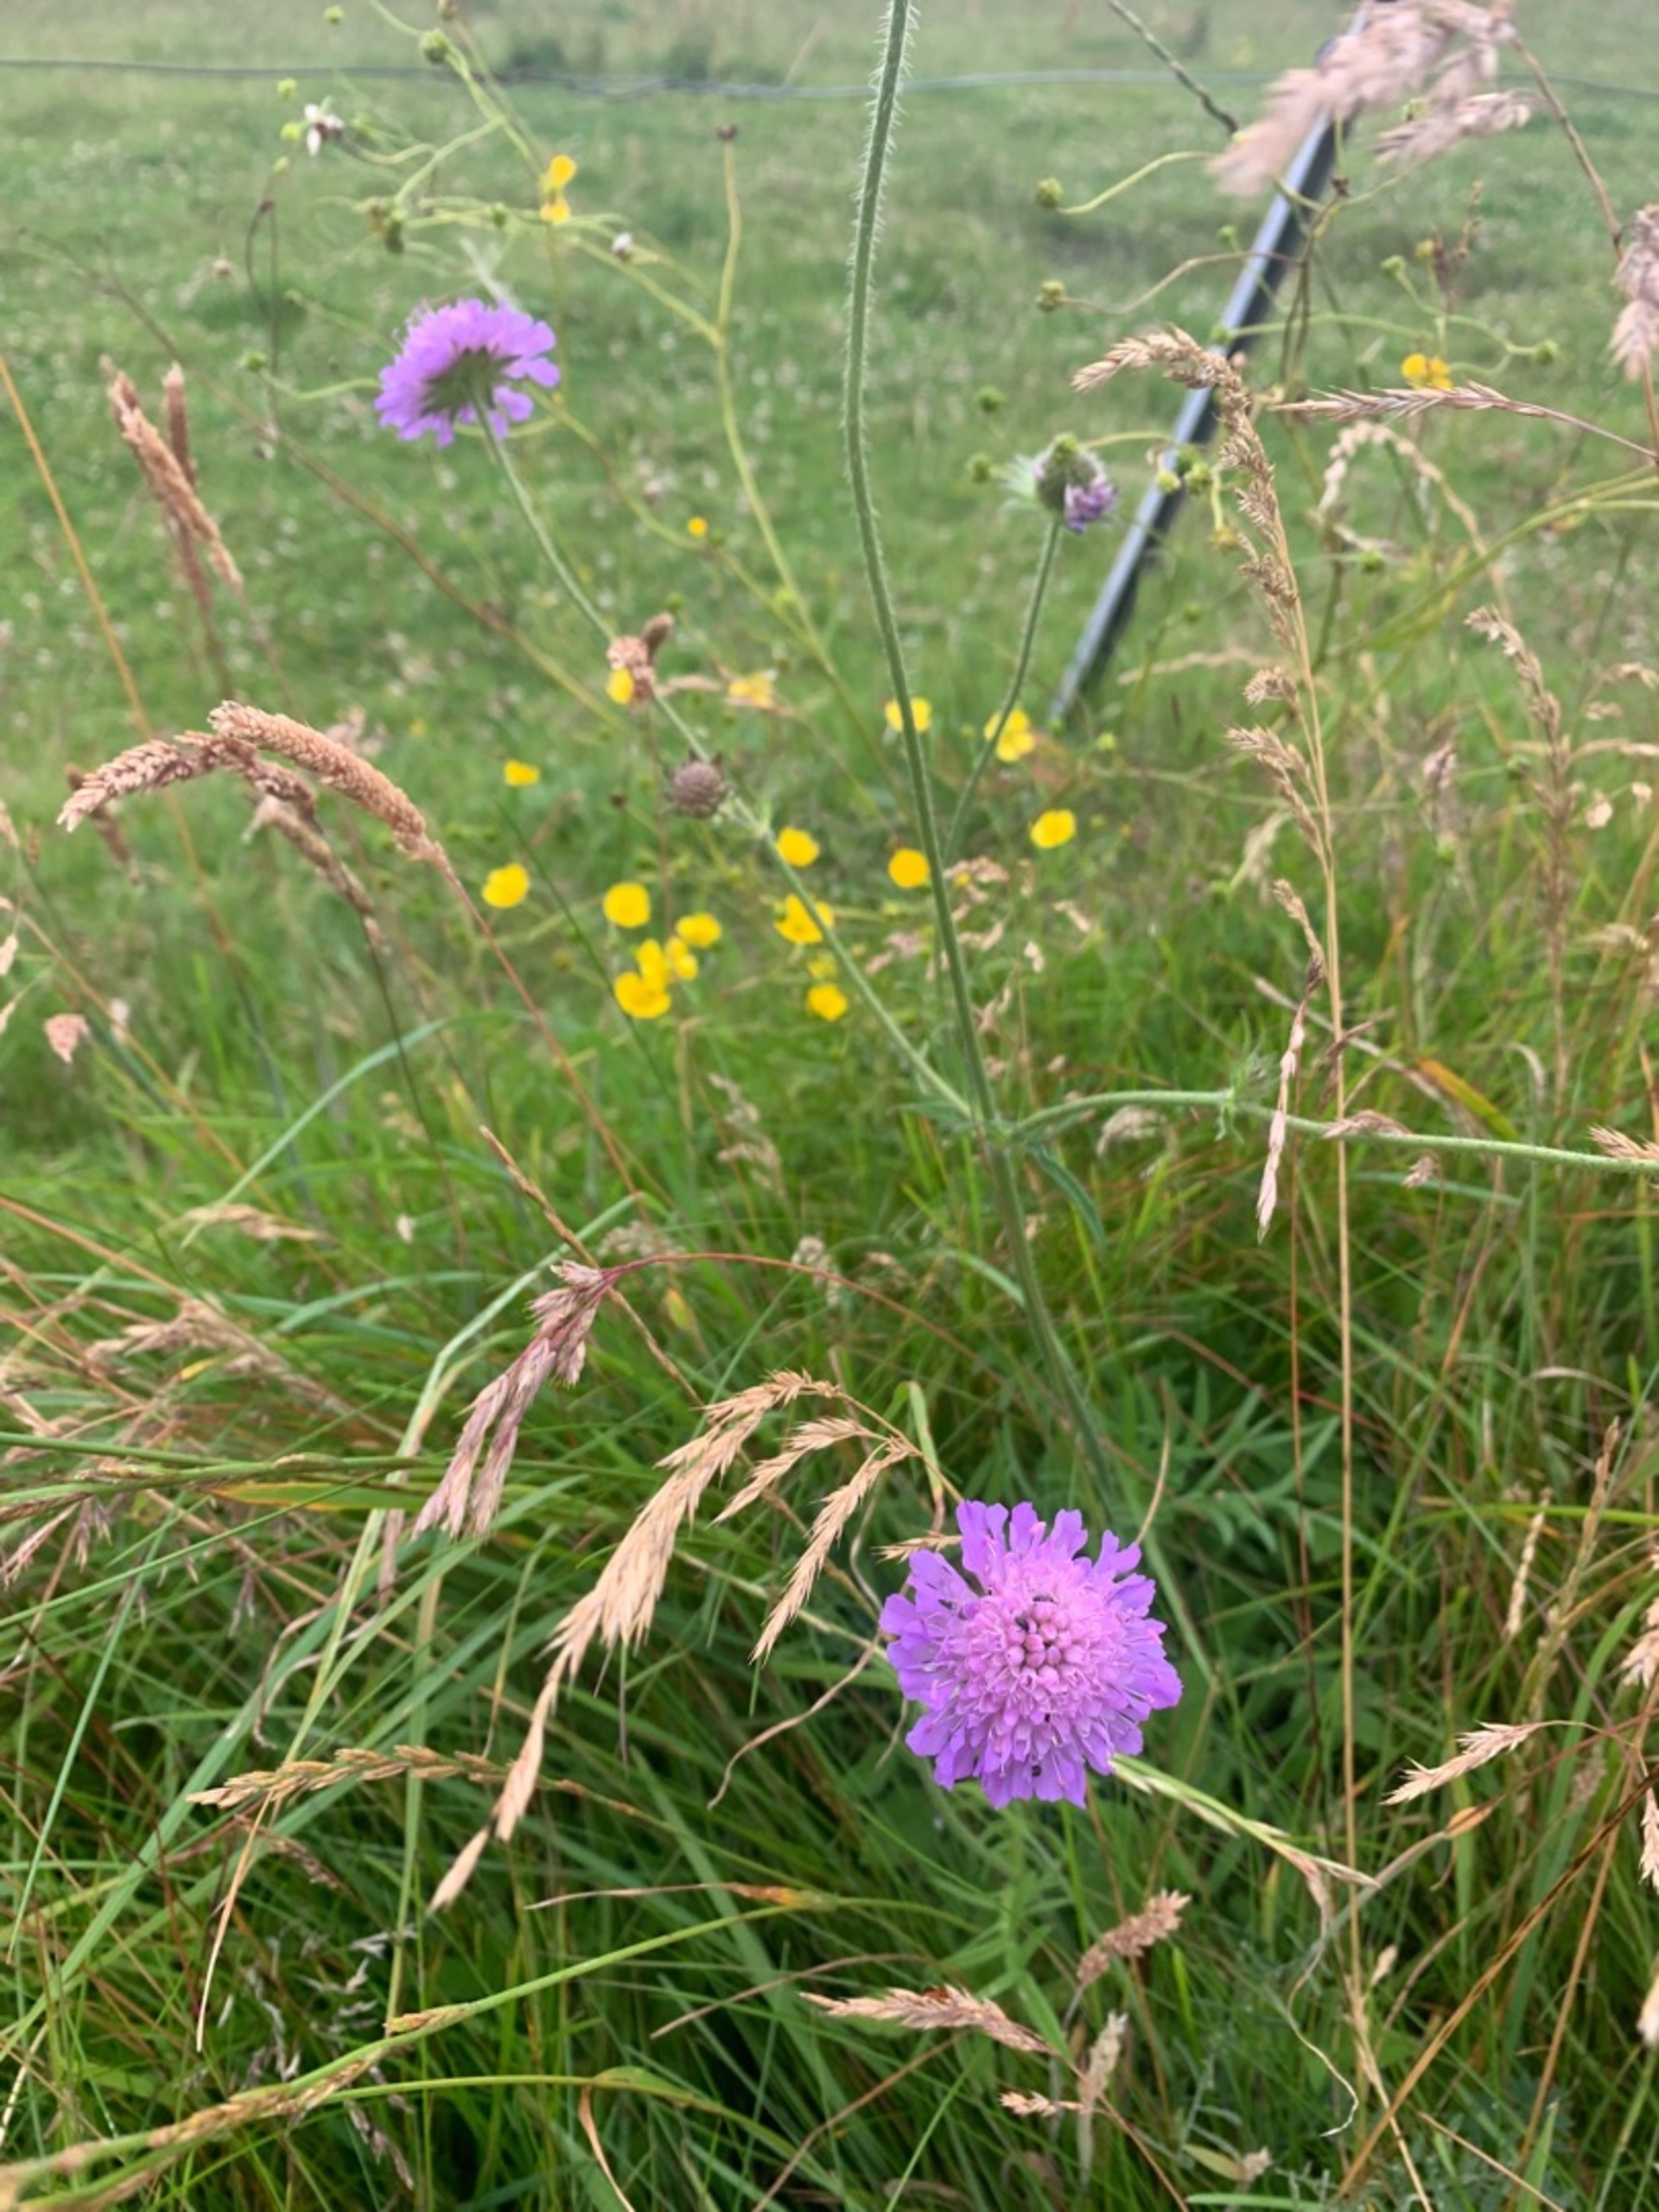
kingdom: Plantae
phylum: Tracheophyta
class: Magnoliopsida
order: Dipsacales
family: Caprifoliaceae
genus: Knautia
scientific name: Knautia arvensis
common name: Blåhat
